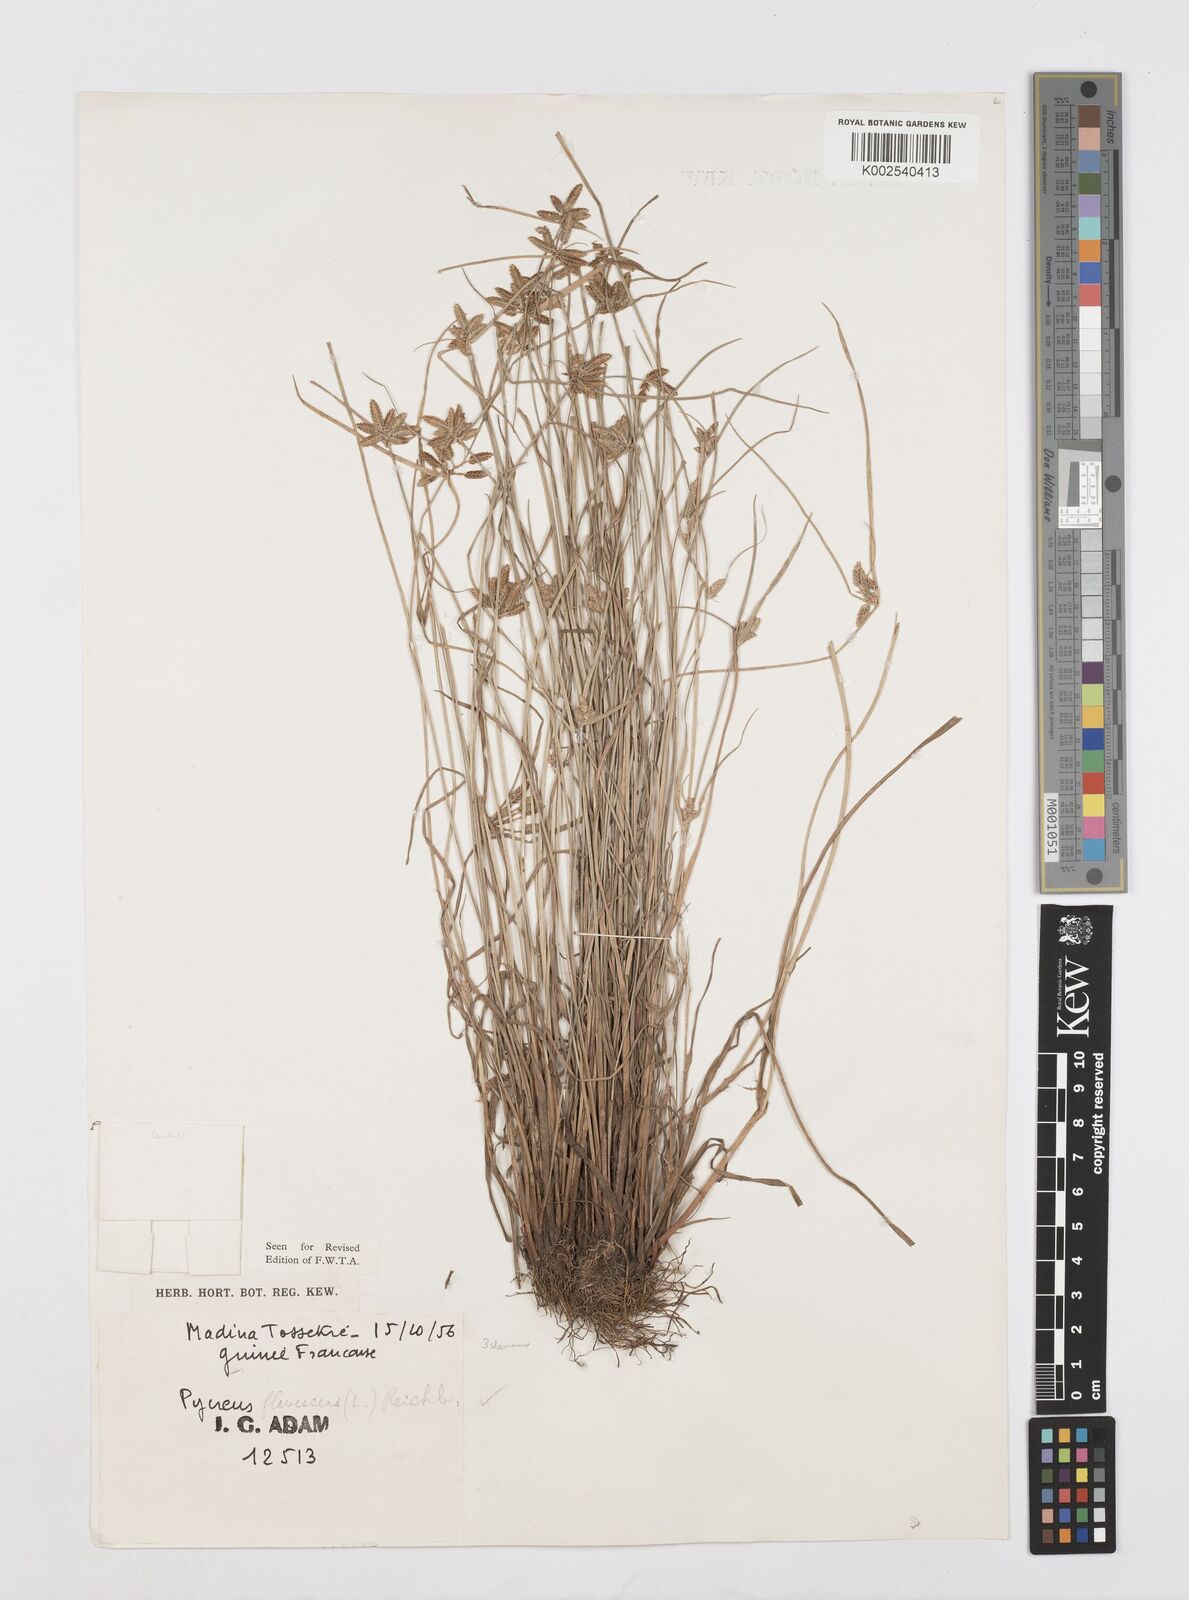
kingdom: Plantae
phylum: Tracheophyta
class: Liliopsida
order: Poales
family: Cyperaceae
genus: Cyperus
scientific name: Cyperus flavescens
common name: Yellow galingale
